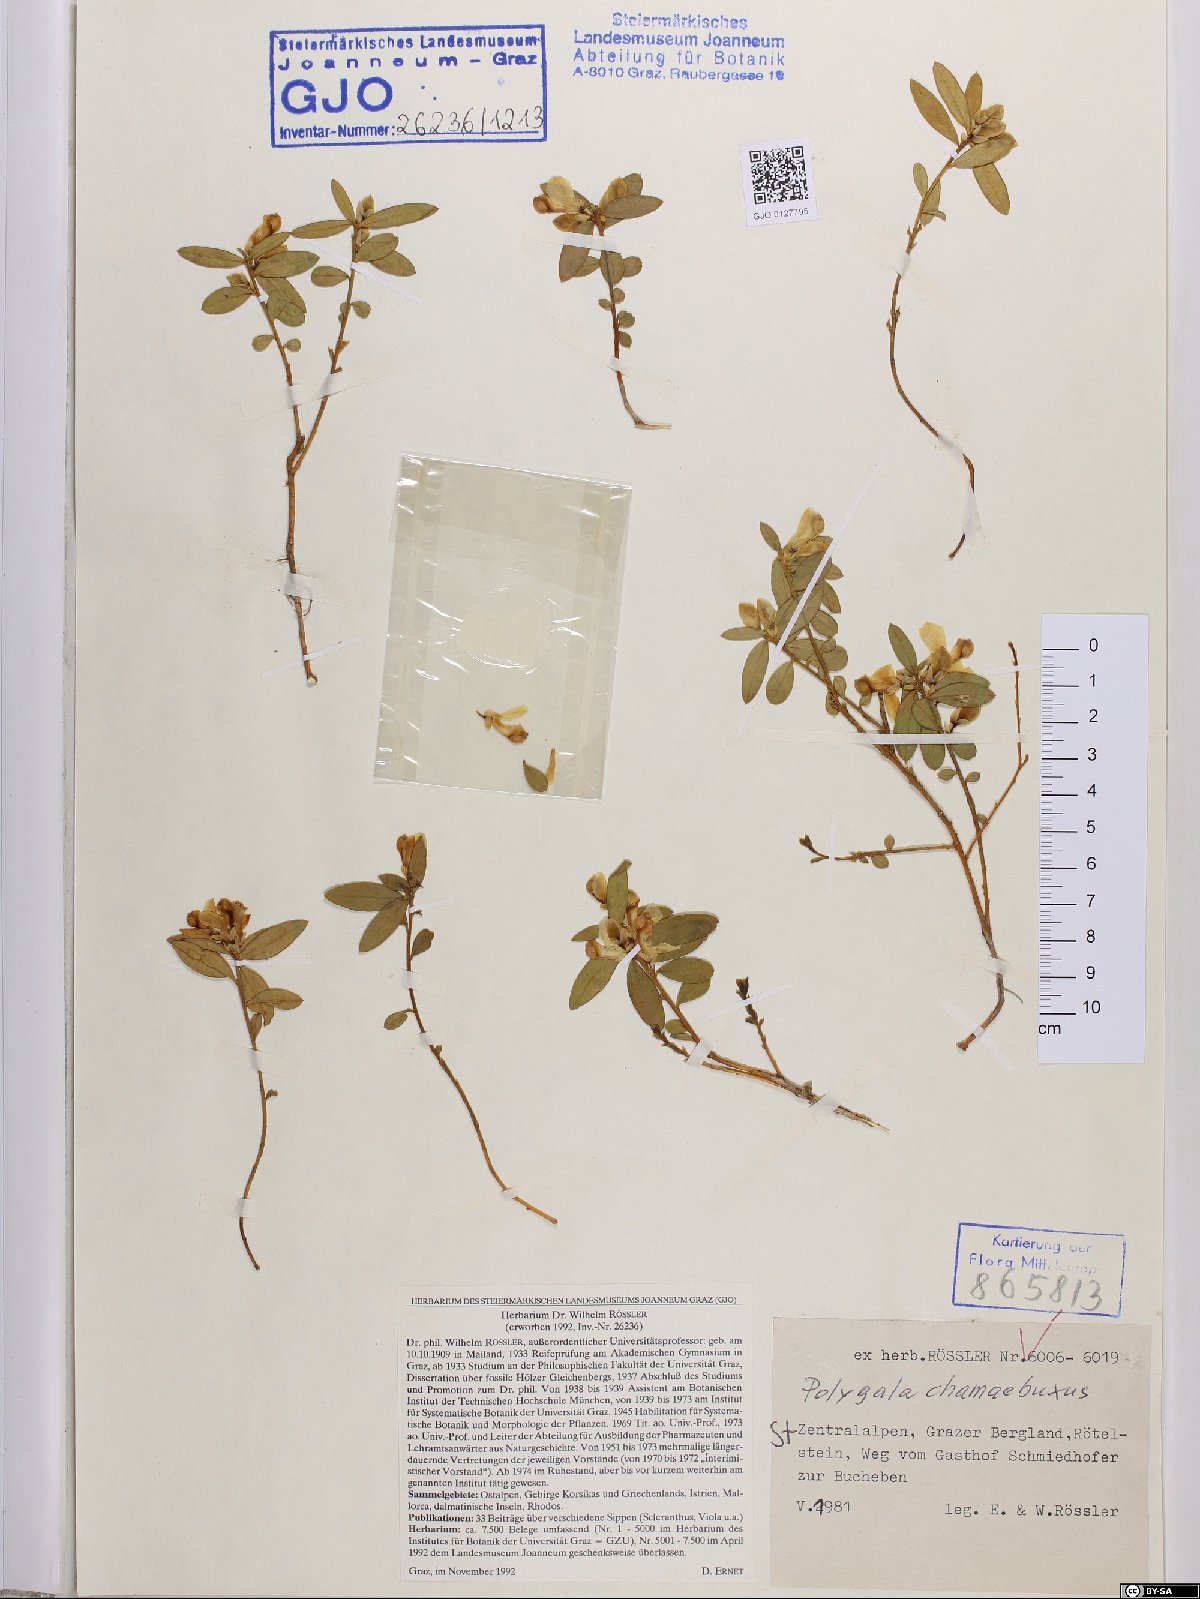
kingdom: Plantae
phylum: Tracheophyta
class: Magnoliopsida
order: Fabales
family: Polygalaceae
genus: Polygaloides
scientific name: Polygaloides chamaebuxus
